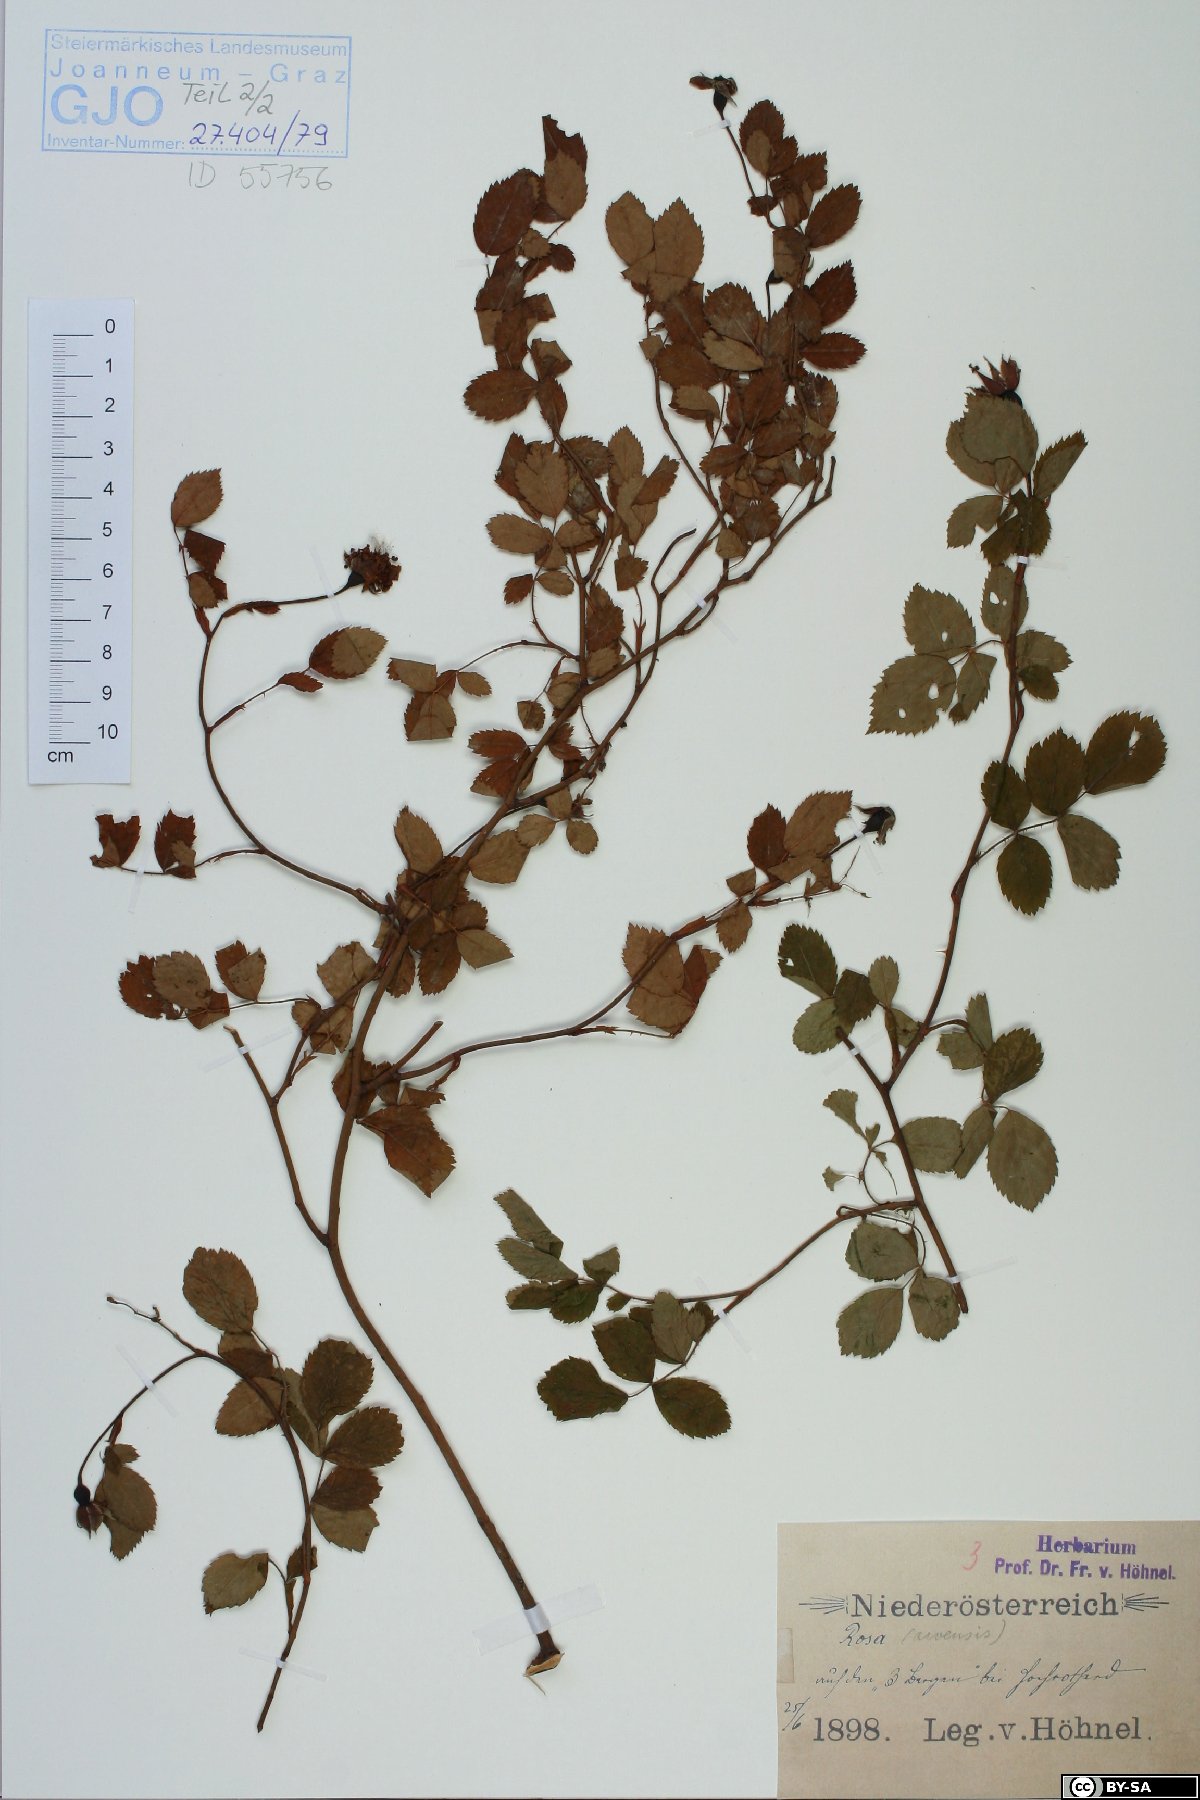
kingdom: Plantae
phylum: Tracheophyta
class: Magnoliopsida
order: Rosales
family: Rosaceae
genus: Rosa
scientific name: Rosa arvensis
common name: Field rose
